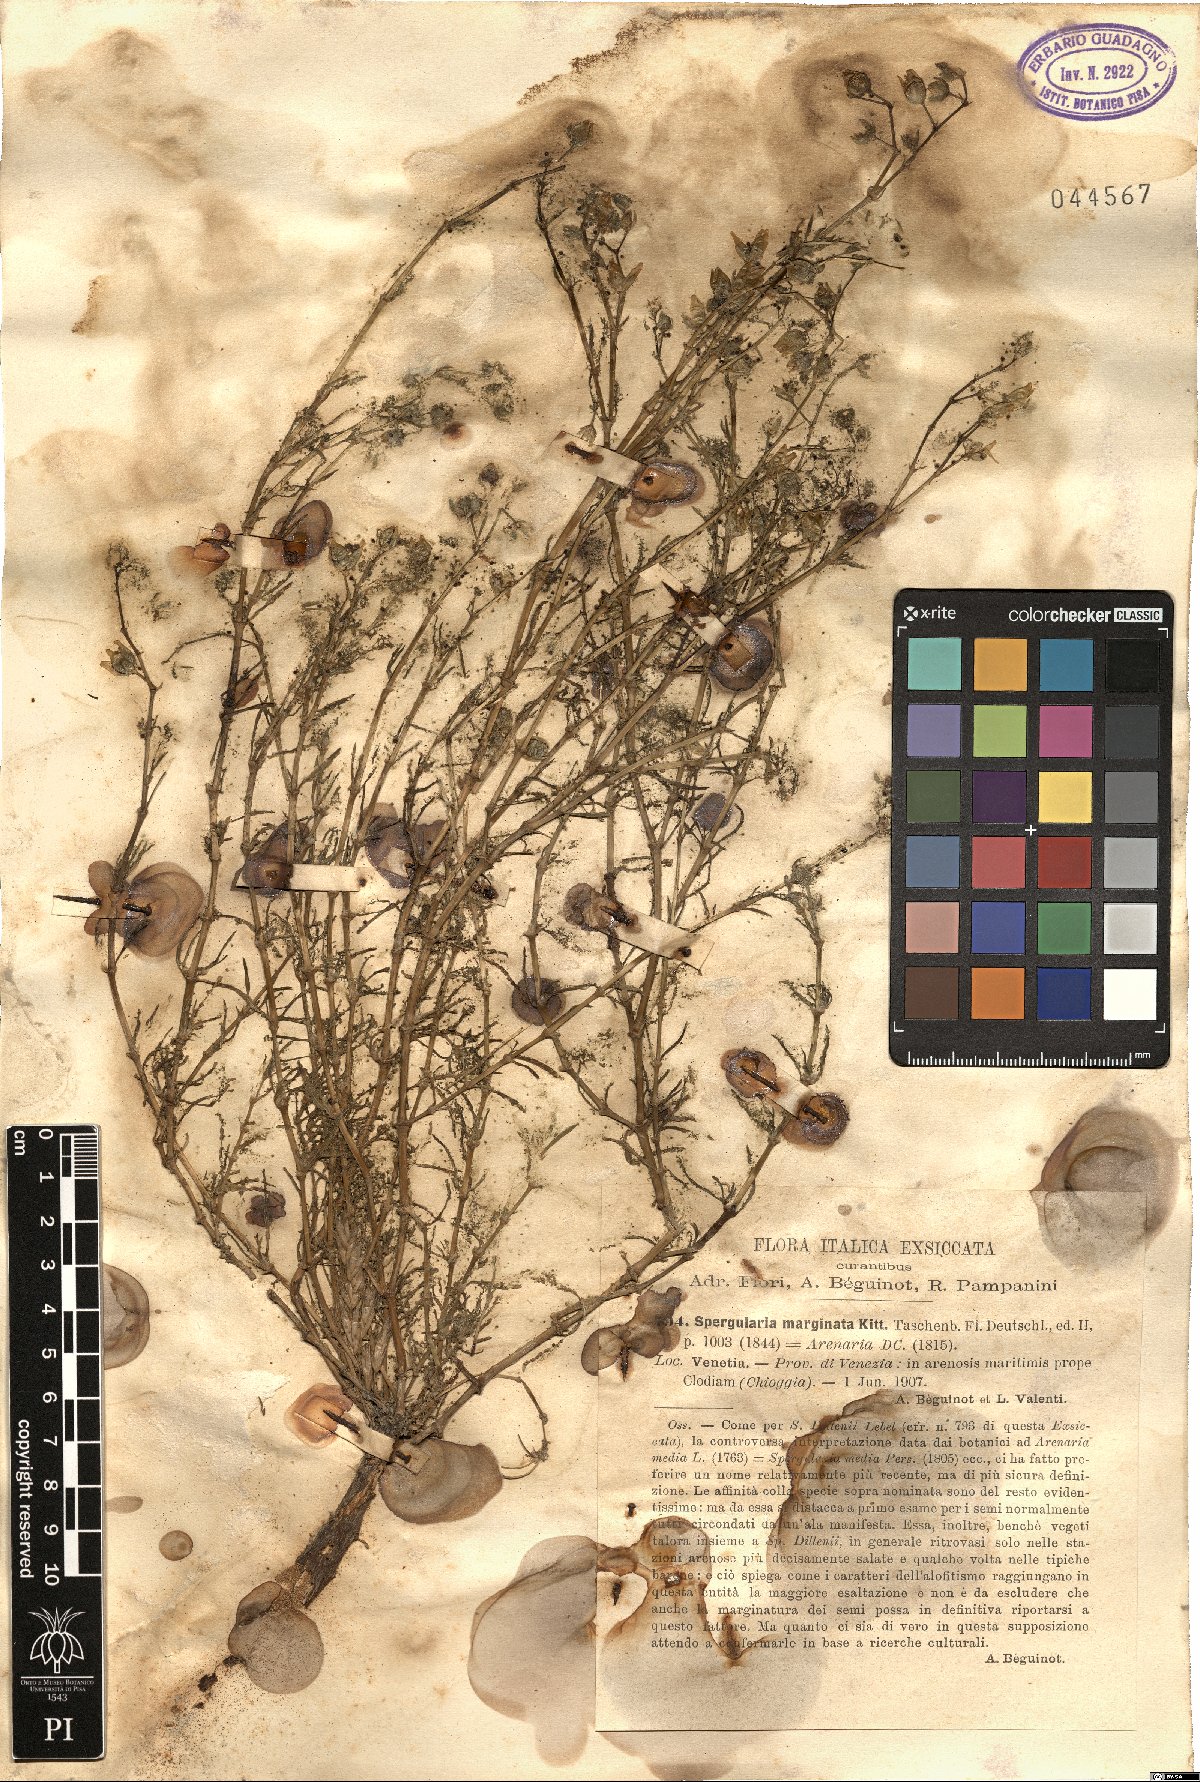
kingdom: Plantae
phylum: Tracheophyta
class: Magnoliopsida
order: Caryophyllales
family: Caryophyllaceae
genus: Spergularia
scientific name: Spergularia media
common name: Greater sea-spurrey
